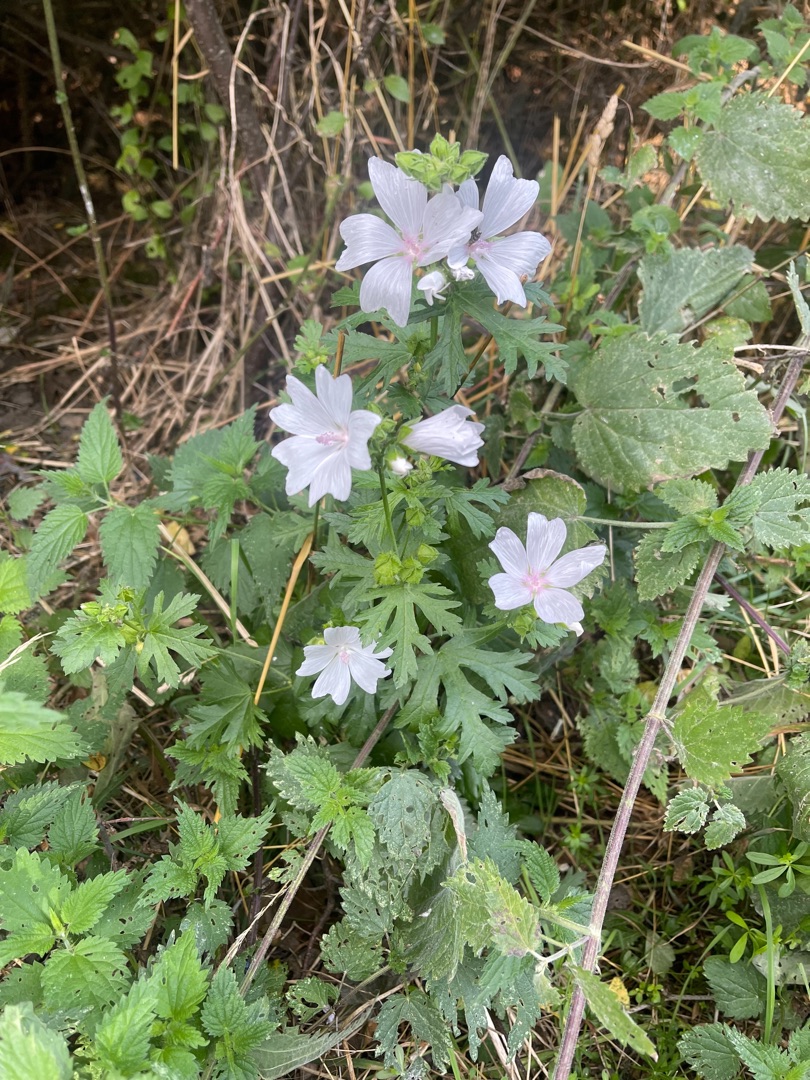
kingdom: Plantae
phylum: Tracheophyta
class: Magnoliopsida
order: Malvales
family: Malvaceae
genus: Malva
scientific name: Malva moschata
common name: Moskus-katost
